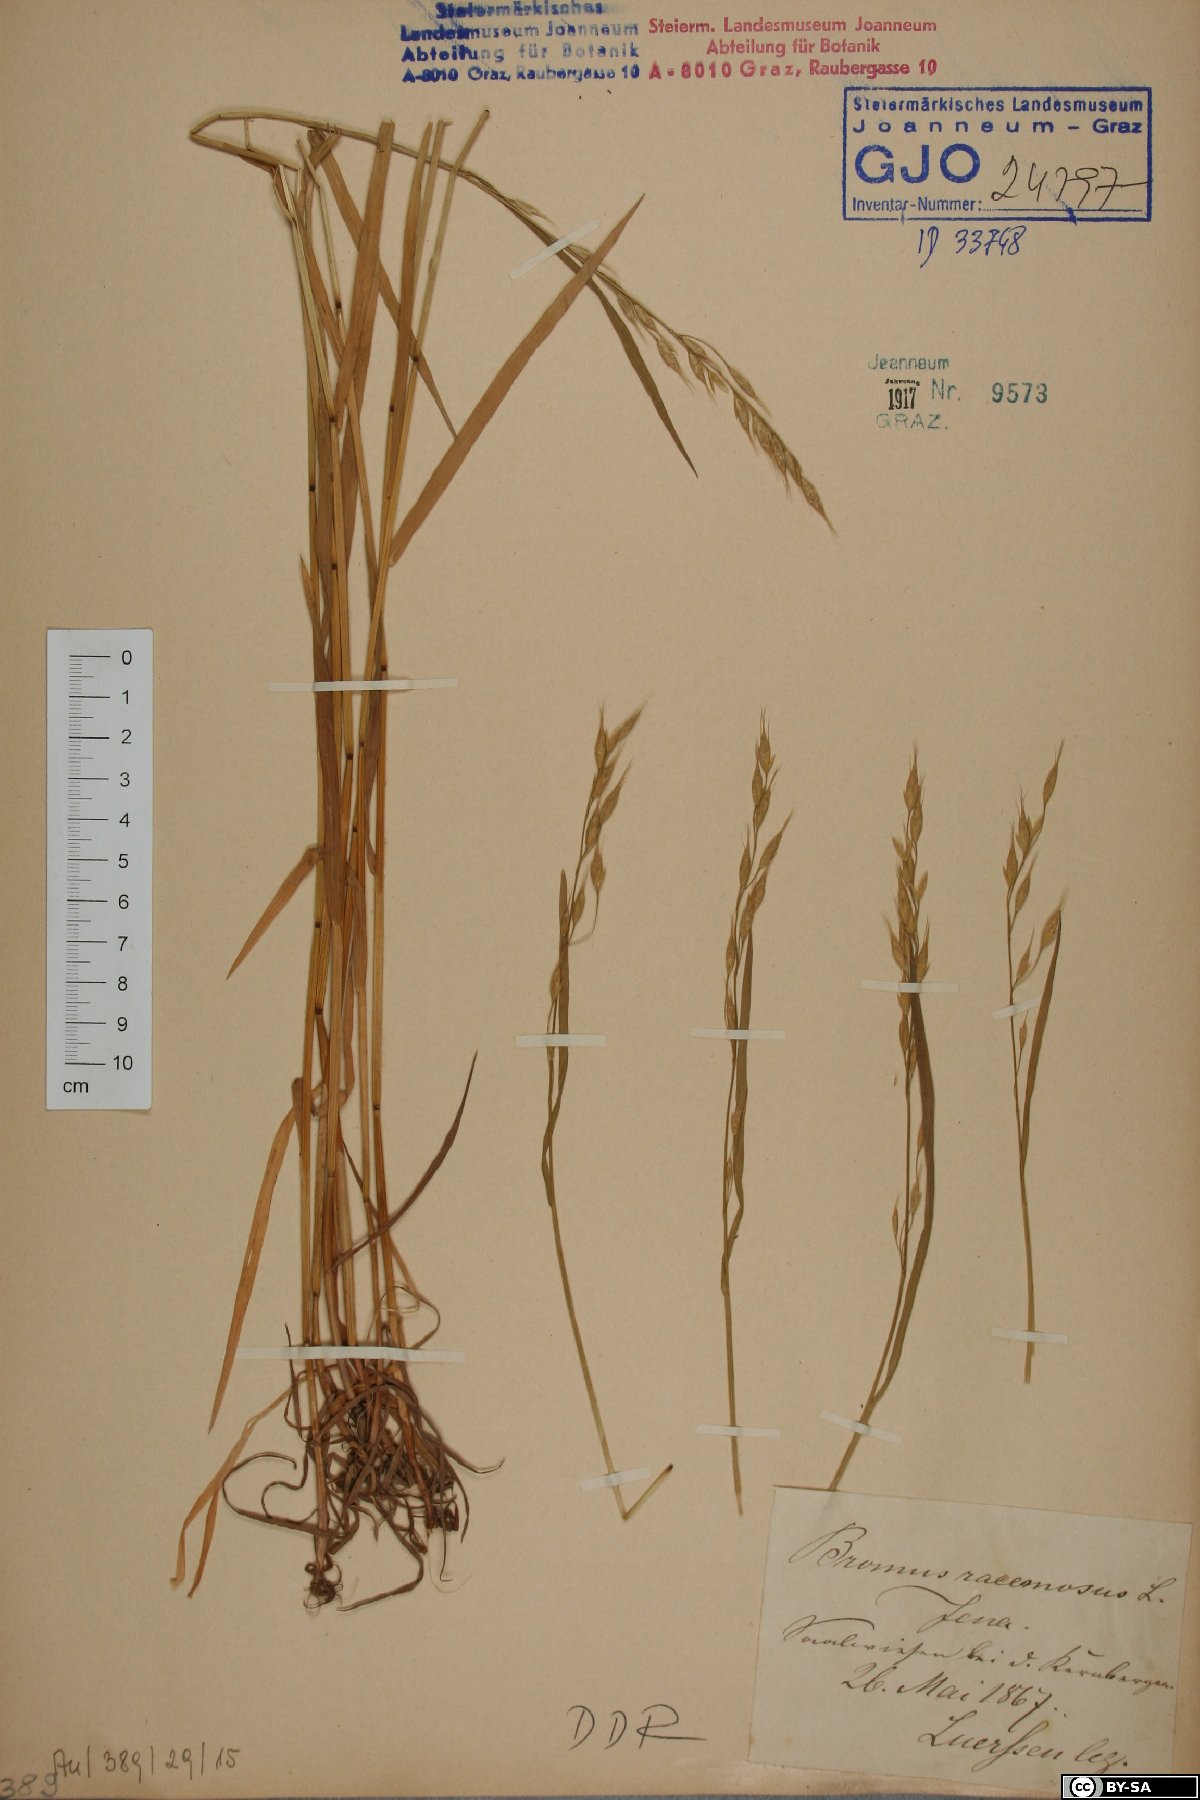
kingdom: Plantae
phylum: Tracheophyta
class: Liliopsida
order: Poales
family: Poaceae
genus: Bromus
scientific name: Bromus racemosus
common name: Bald brome
